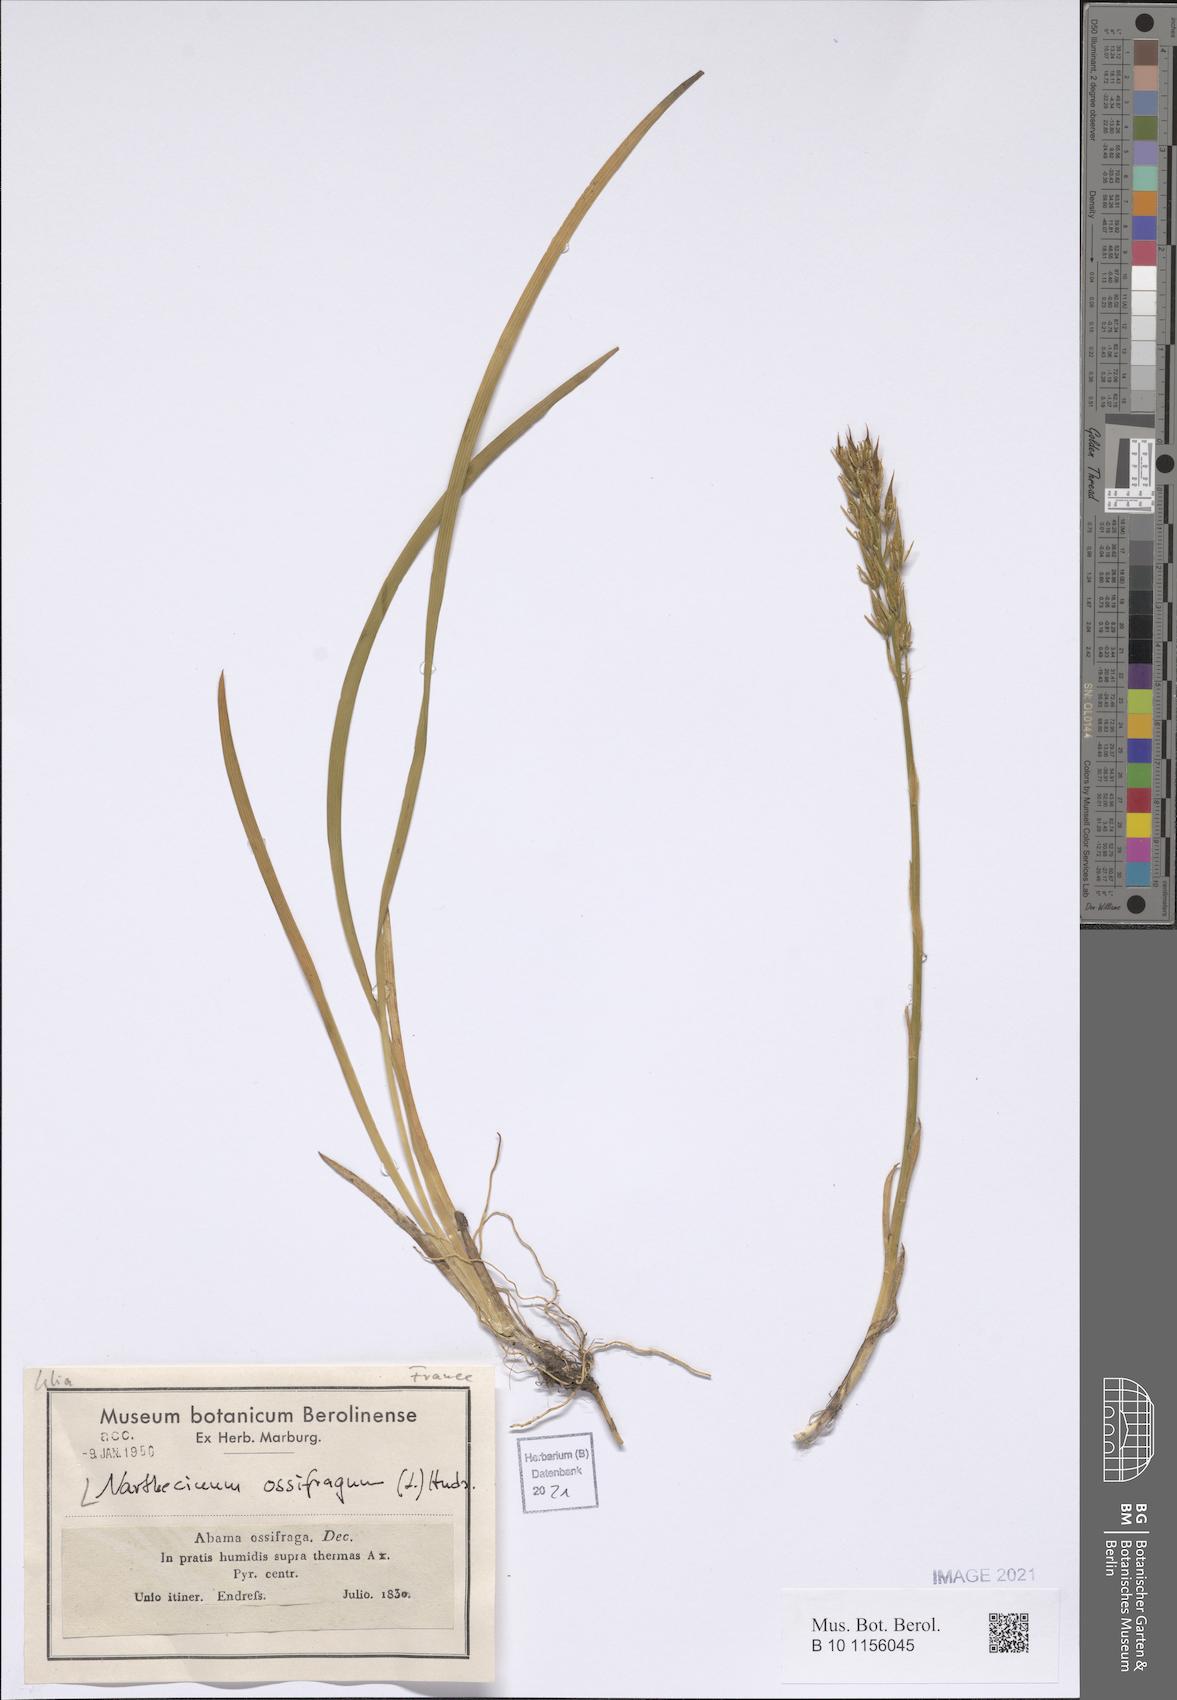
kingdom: Plantae
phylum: Tracheophyta
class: Liliopsida
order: Dioscoreales
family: Nartheciaceae
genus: Narthecium
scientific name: Narthecium ossifragum
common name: Bog asphodel
